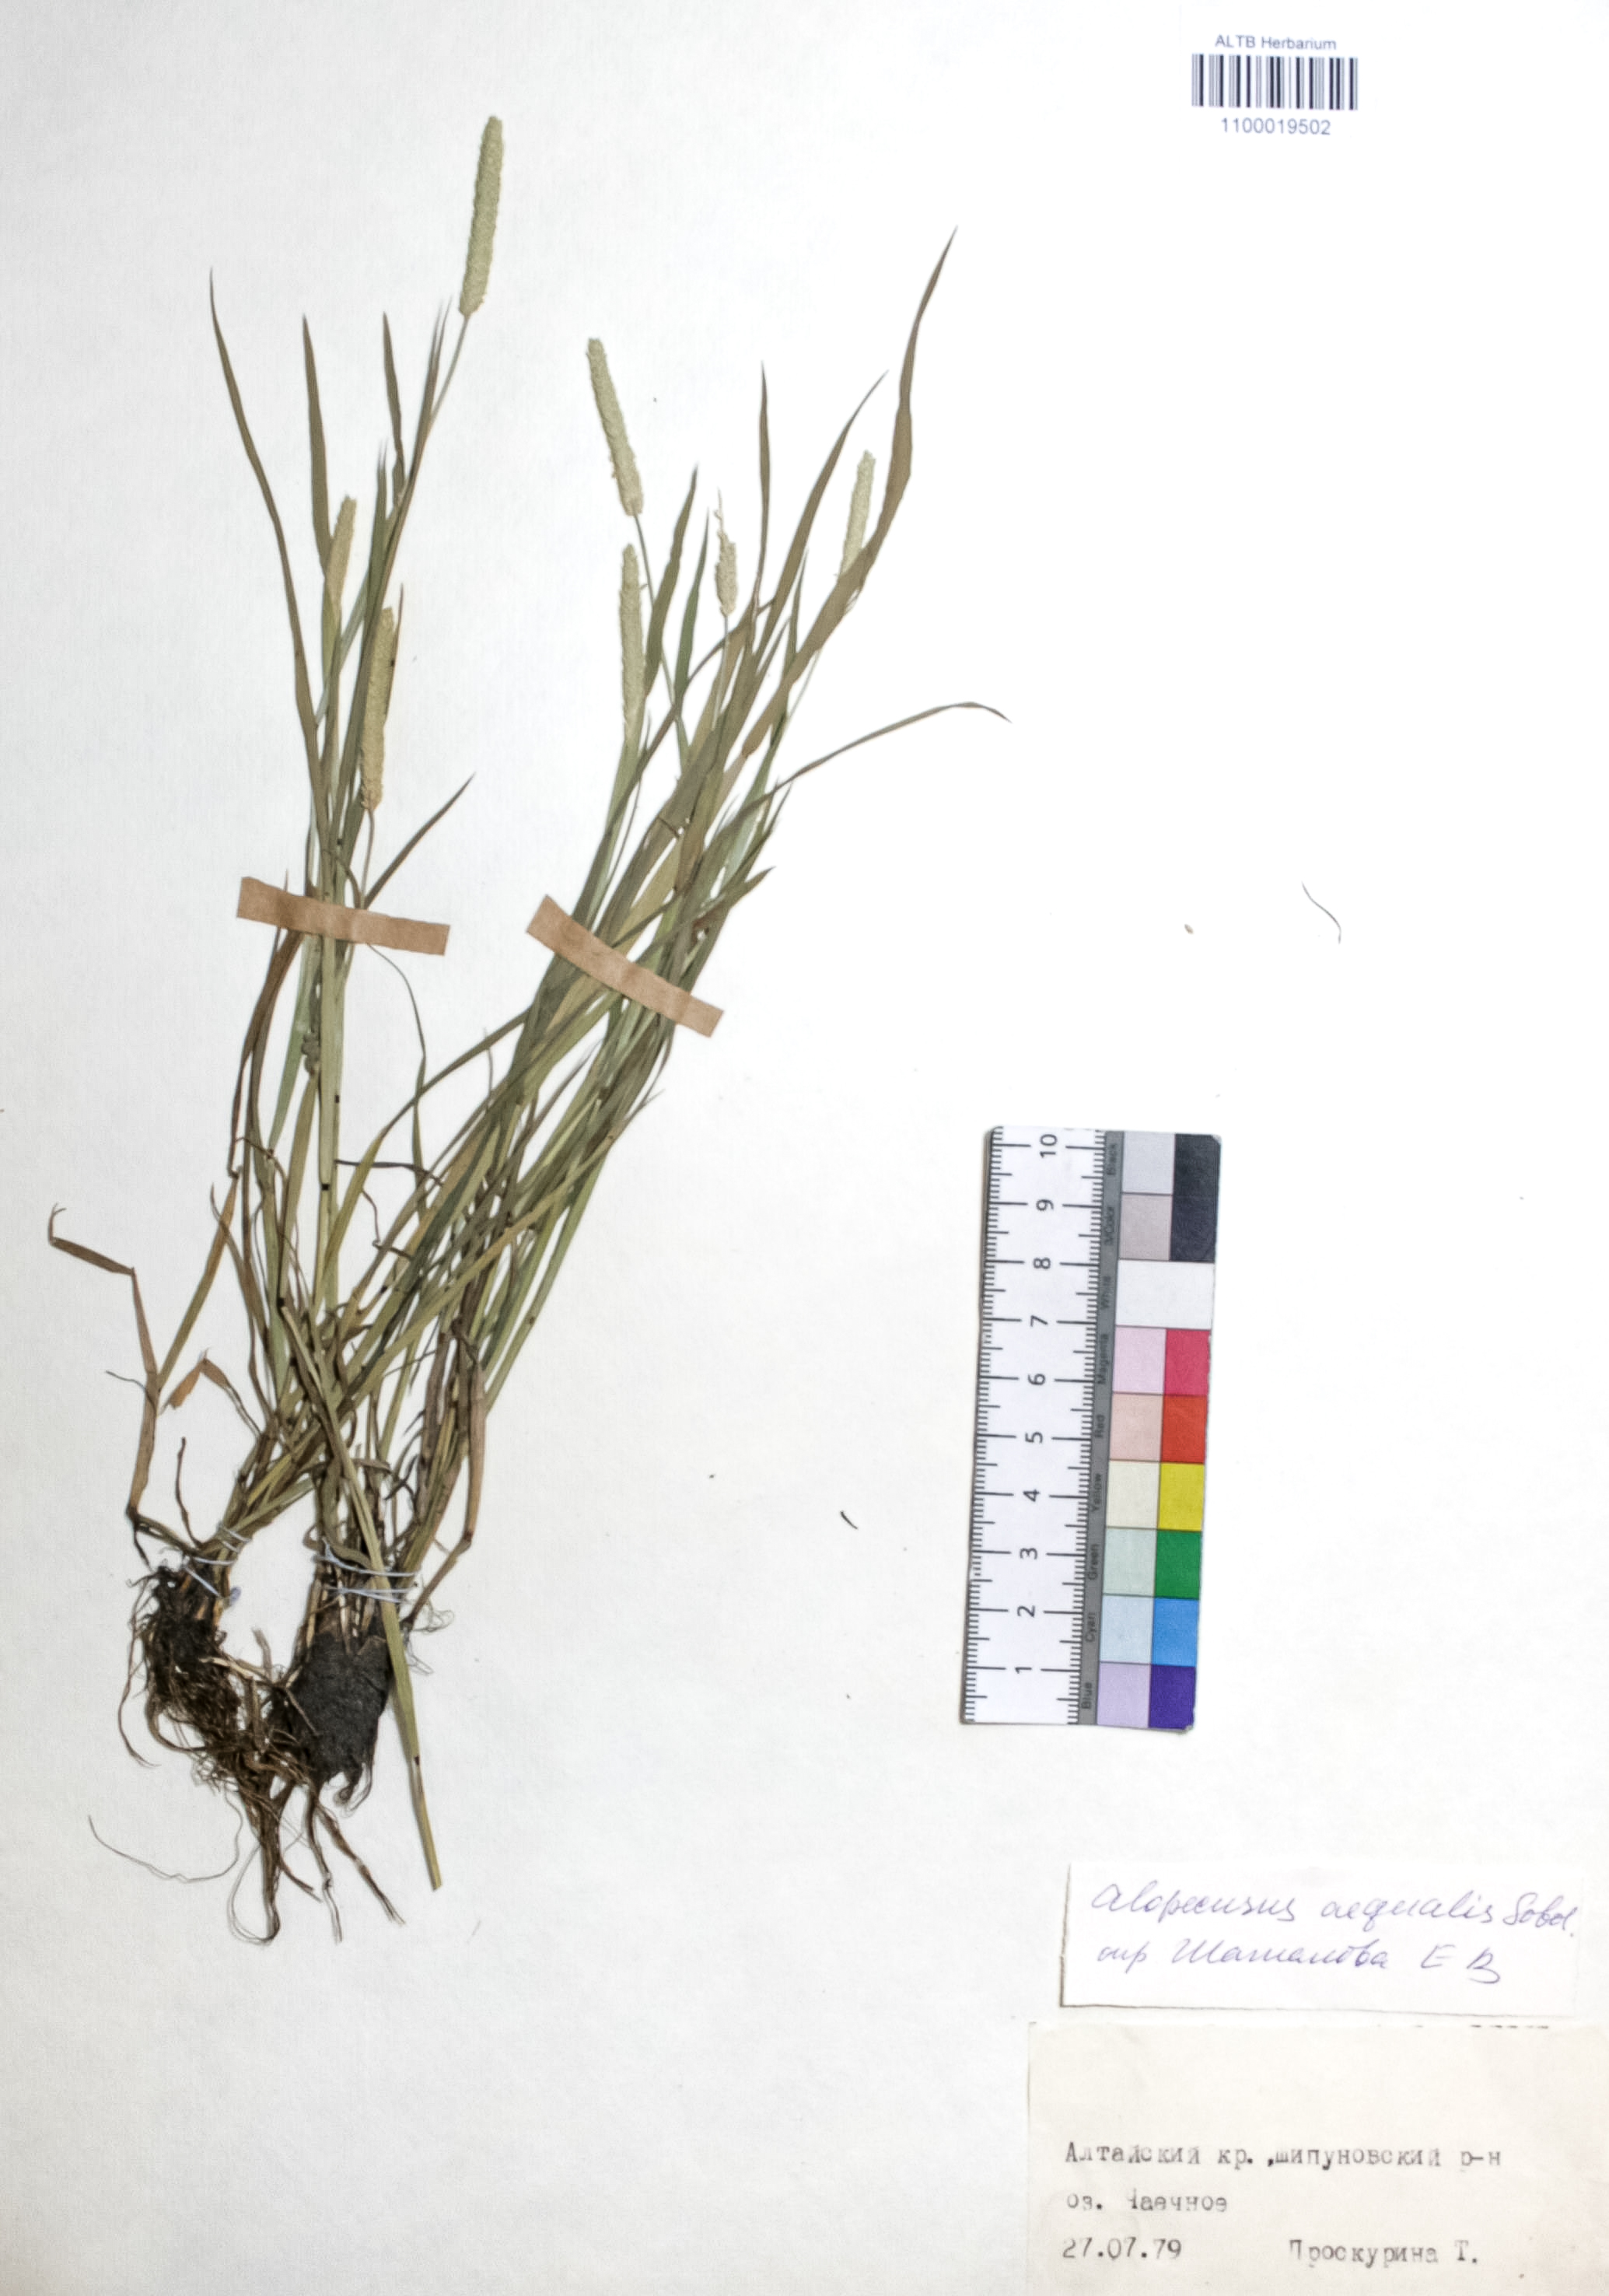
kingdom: Plantae
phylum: Tracheophyta
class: Liliopsida
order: Poales
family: Poaceae
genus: Alopecurus
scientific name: Alopecurus aequalis
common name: Orange foxtail
